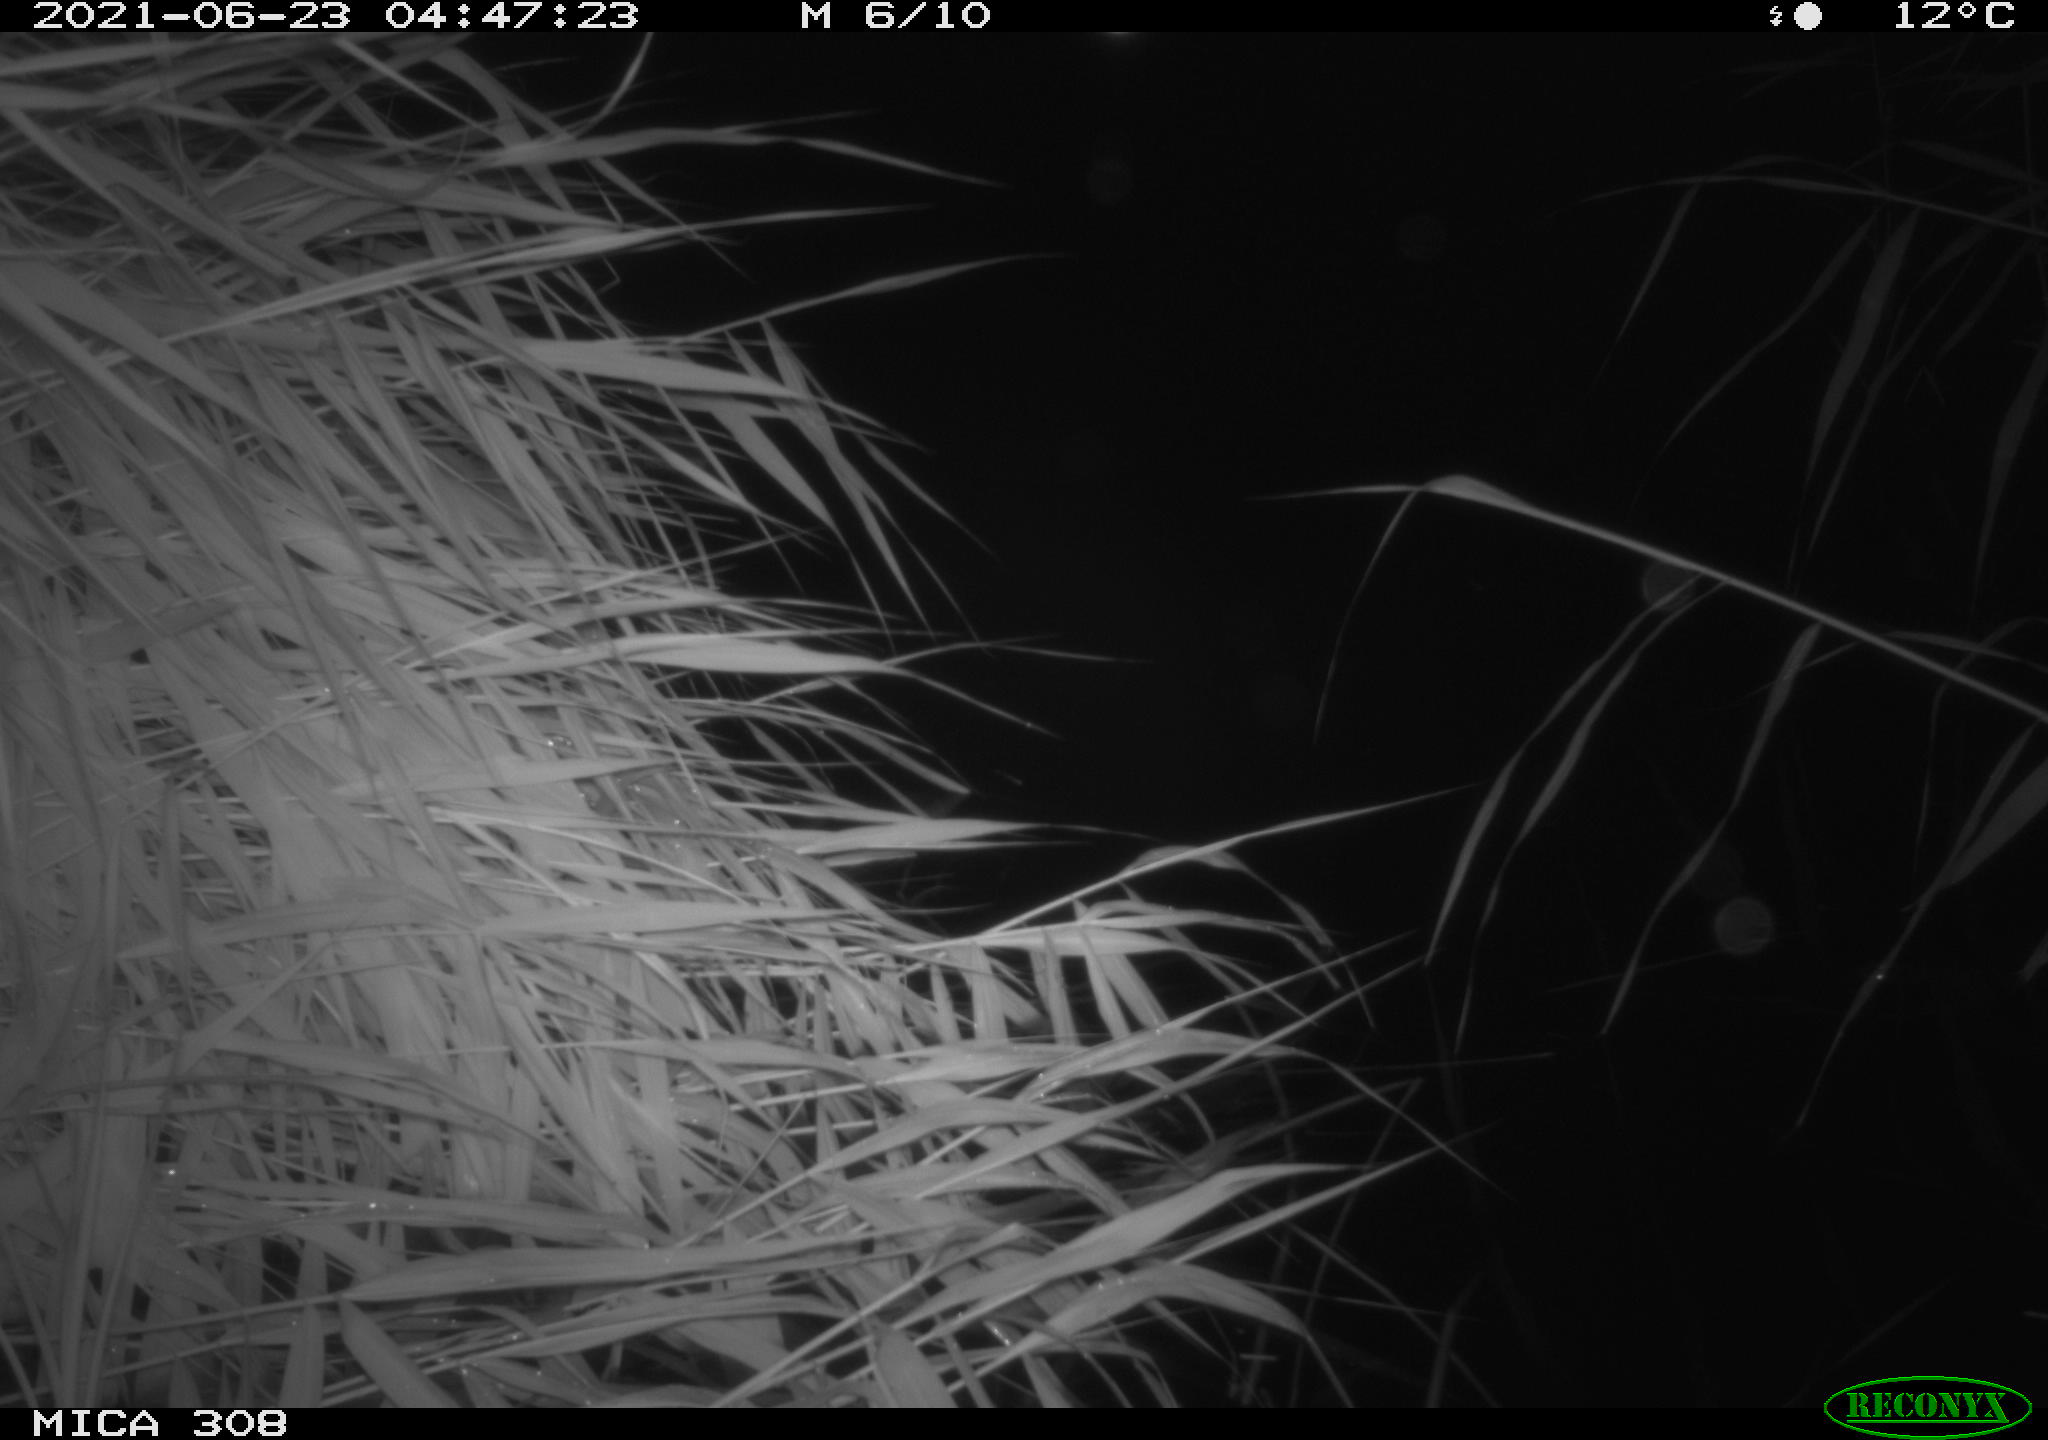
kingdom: Animalia
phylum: Chordata
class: Aves
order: Anseriformes
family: Anatidae
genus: Anas
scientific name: Anas platyrhynchos
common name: Mallard
